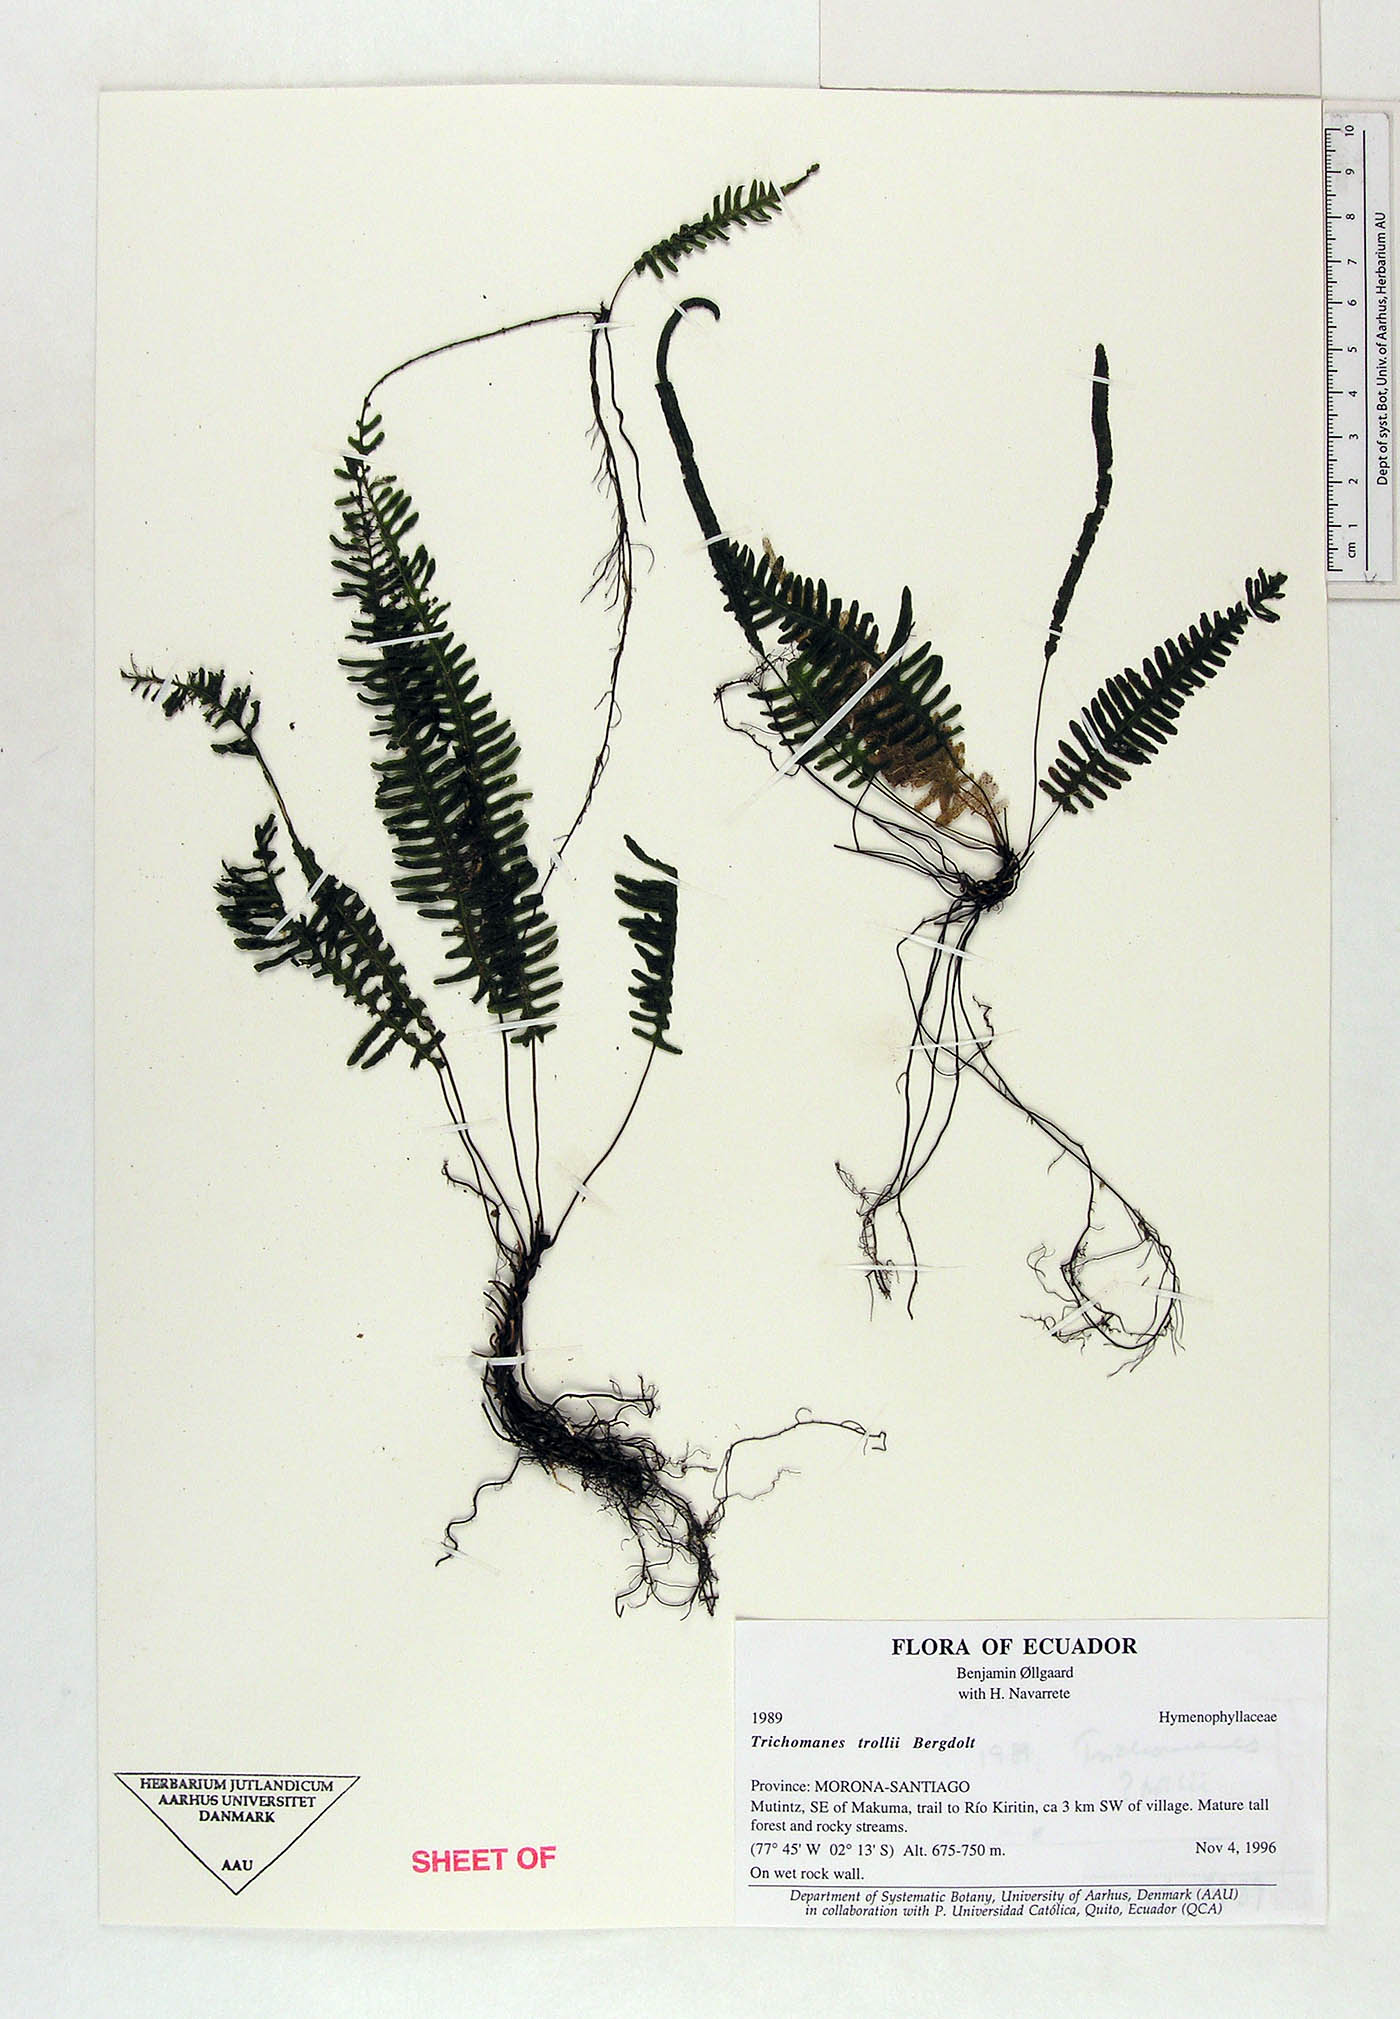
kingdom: Plantae
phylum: Tracheophyta
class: Polypodiopsida
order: Hymenophyllales
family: Hymenophyllaceae
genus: Trichomanes
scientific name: Trichomanes trollii
